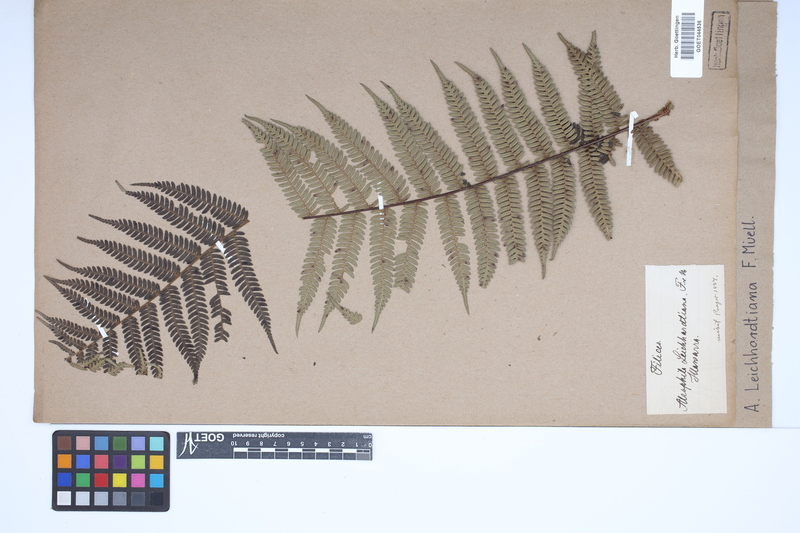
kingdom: Plantae
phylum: Tracheophyta
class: Polypodiopsida
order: Cyatheales
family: Cyatheaceae
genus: Alsophila
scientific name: Alsophila leichhardtiana
